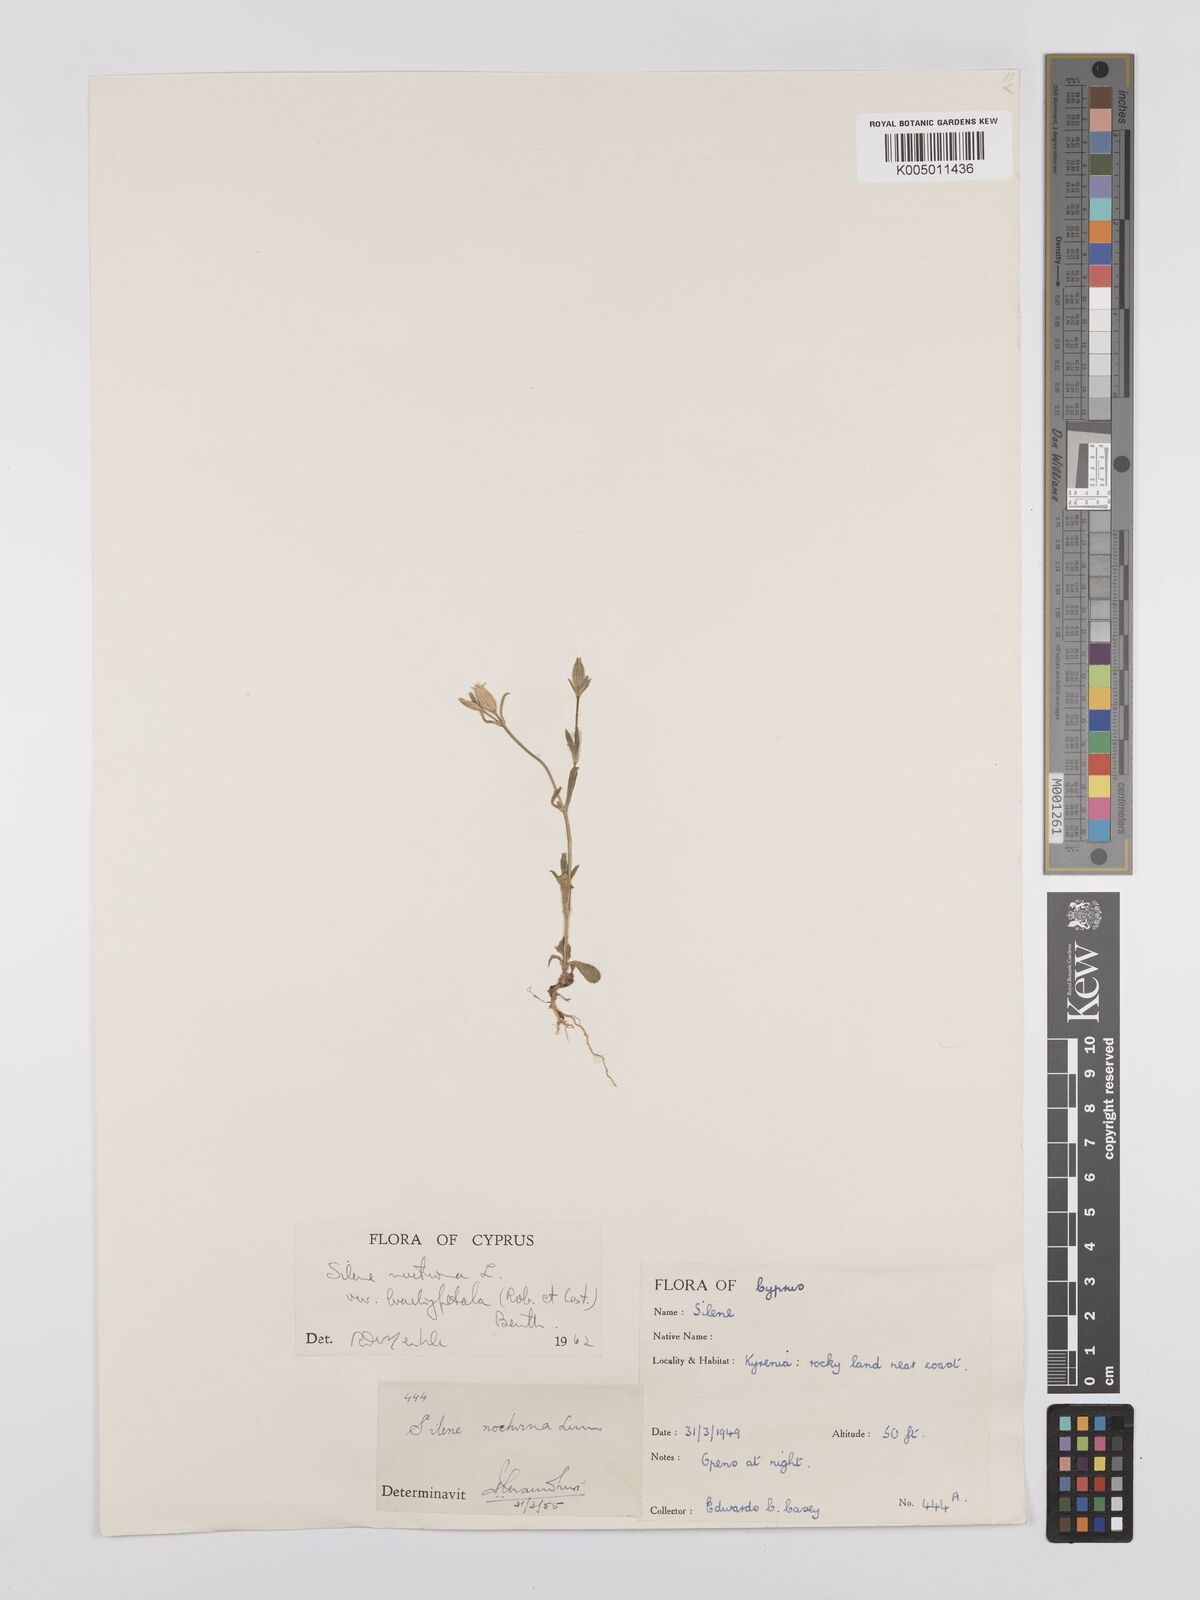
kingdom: Plantae
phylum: Tracheophyta
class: Magnoliopsida
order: Caryophyllales
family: Caryophyllaceae
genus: Silene
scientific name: Silene nocturna
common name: Mediterranean catchfly
